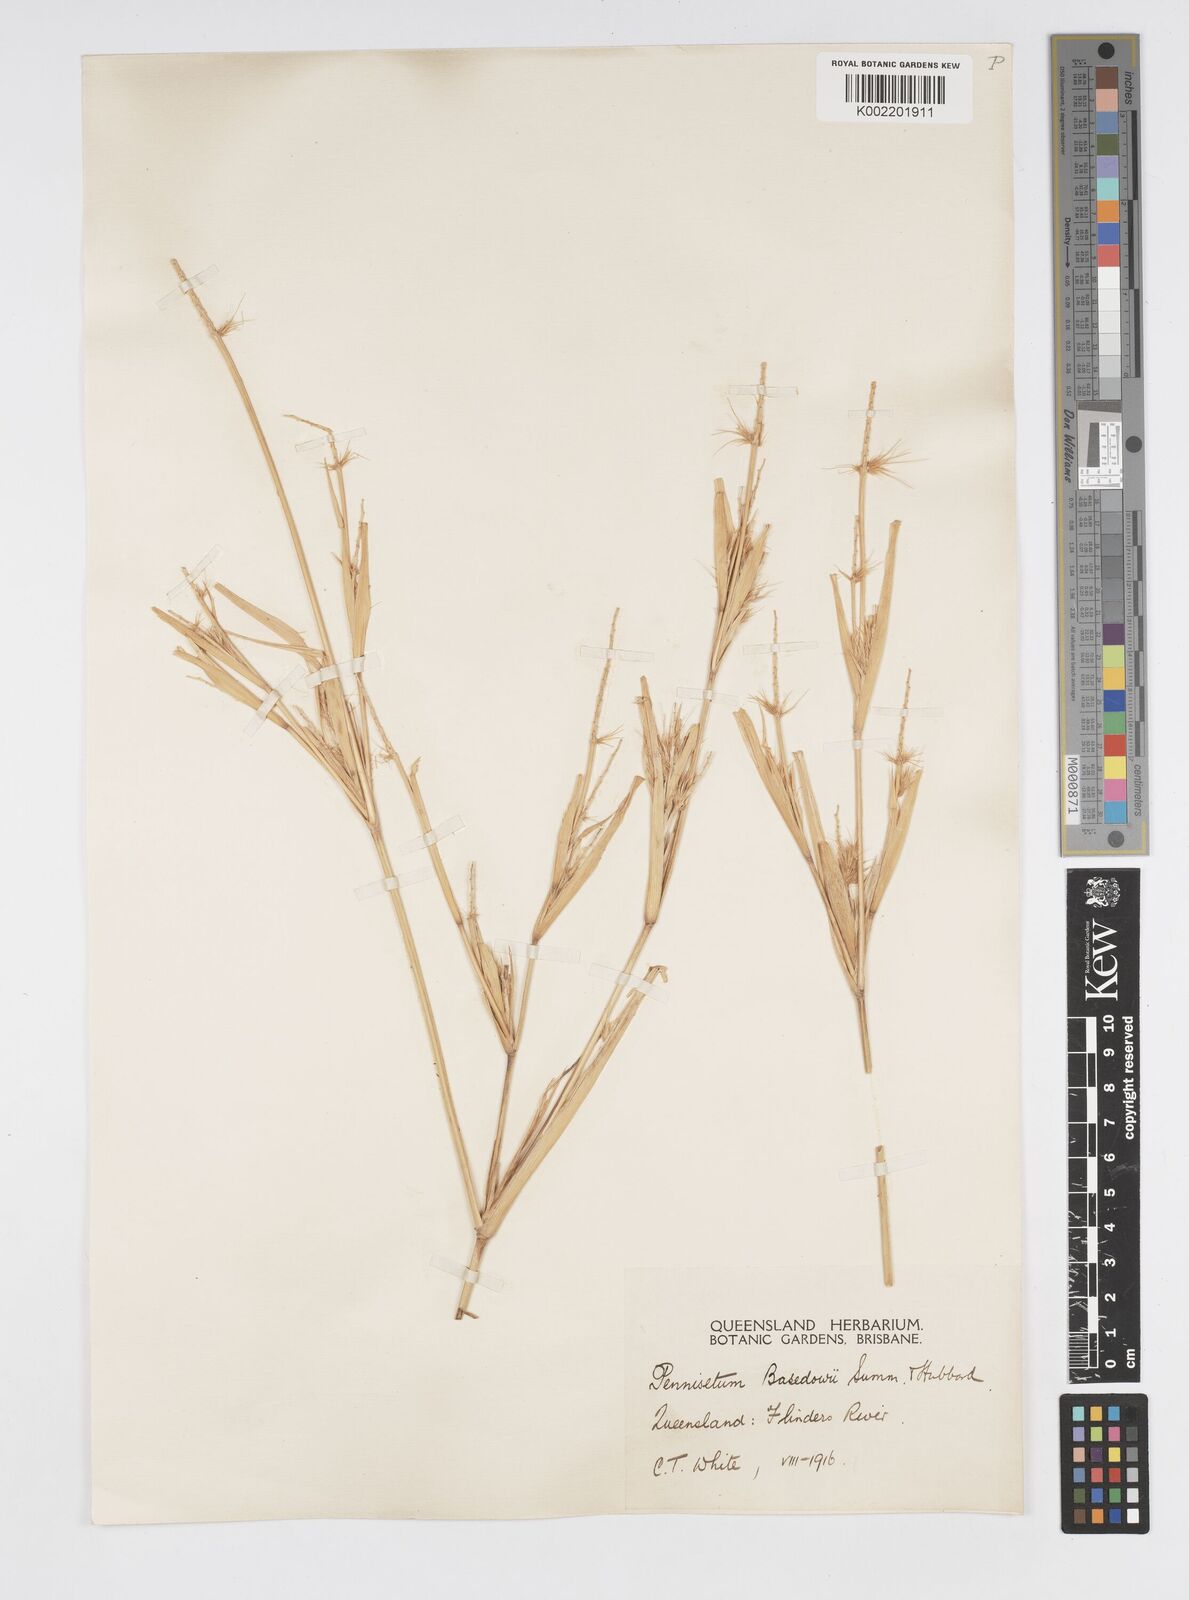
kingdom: Plantae
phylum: Tracheophyta
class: Liliopsida
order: Poales
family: Poaceae
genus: Cenchrus
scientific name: Cenchrus basedowii
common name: Asbestos grass
